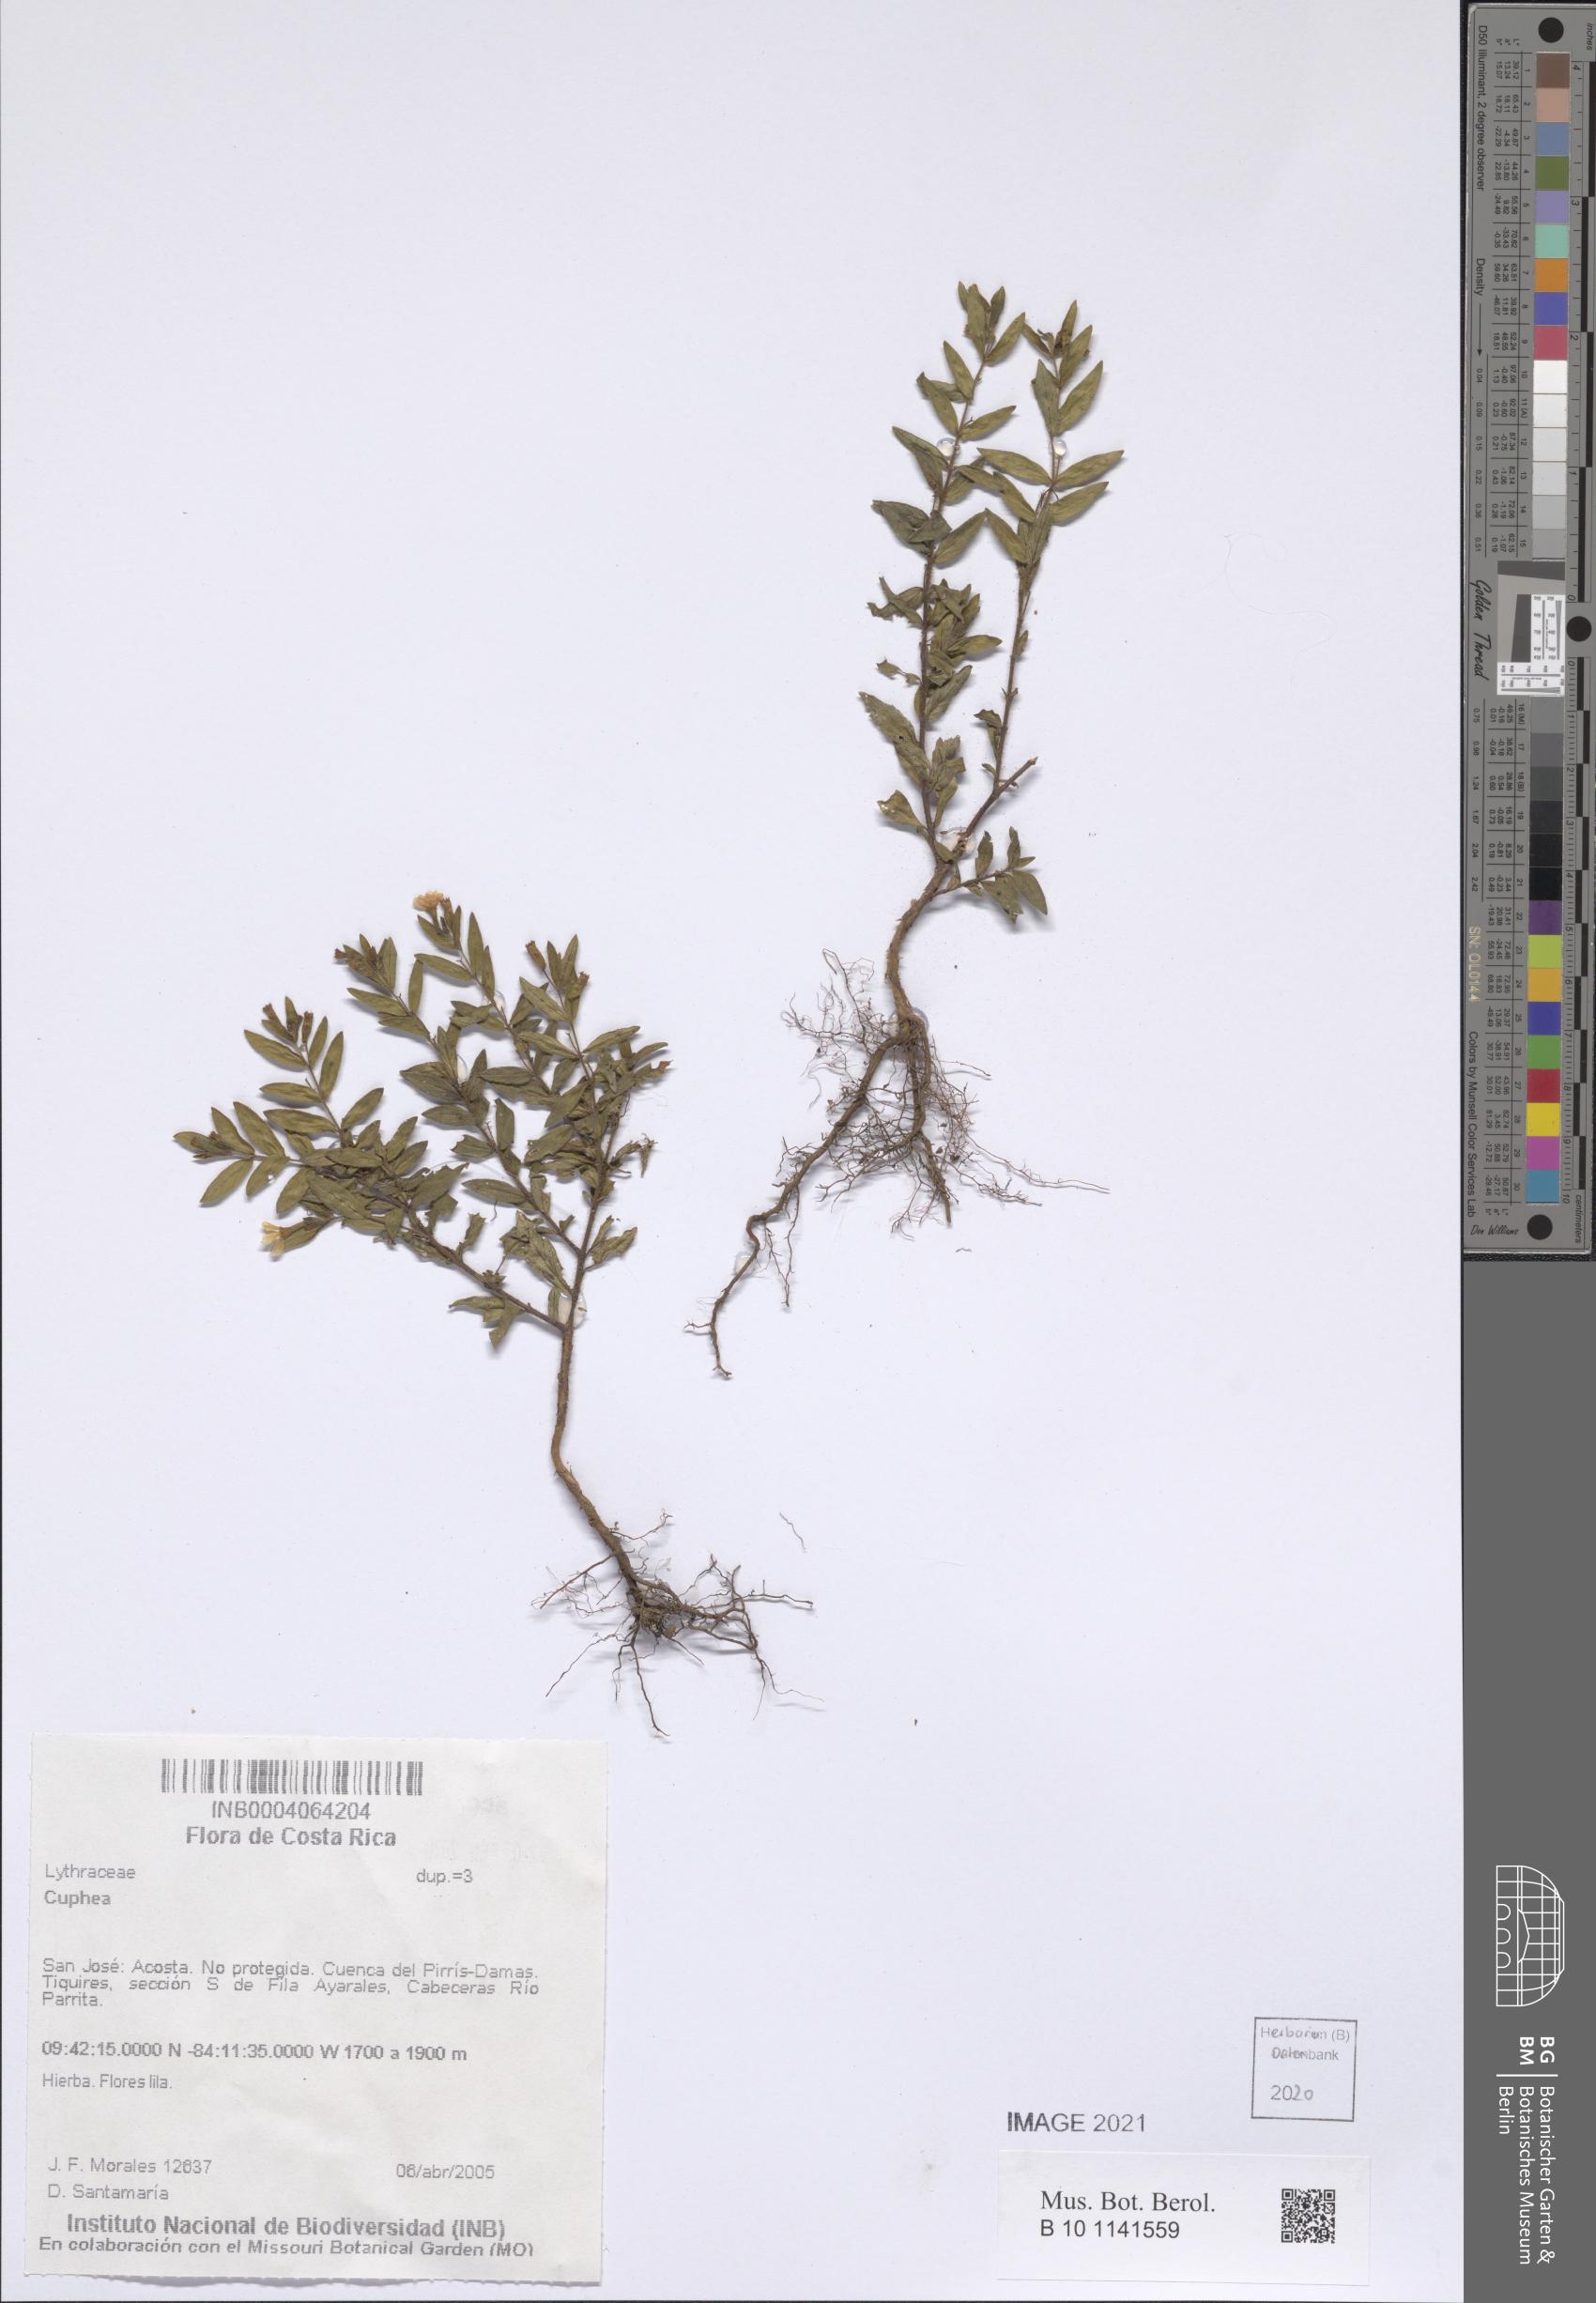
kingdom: Plantae
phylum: Tracheophyta
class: Magnoliopsida
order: Myrtales
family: Lythraceae
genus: Cuphea
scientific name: Cuphea
